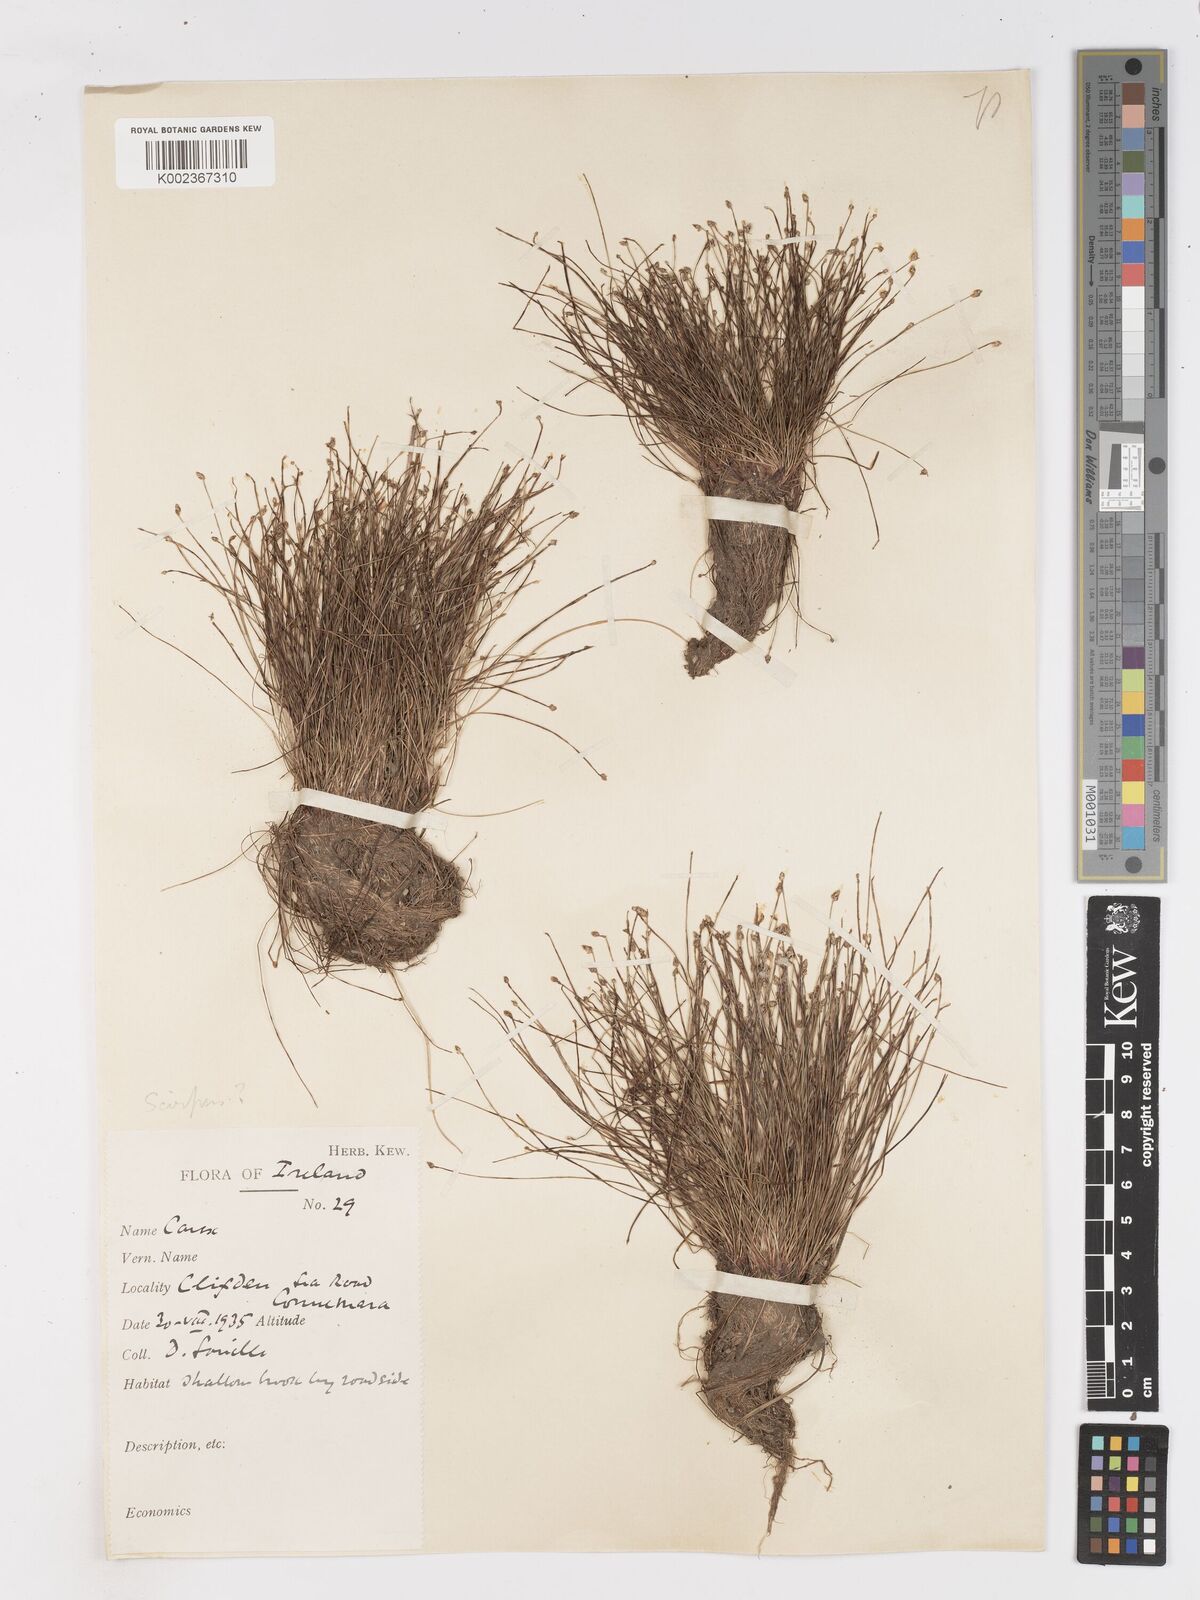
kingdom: Plantae
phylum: Tracheophyta
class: Liliopsida
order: Poales
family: Cyperaceae
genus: Isolepis
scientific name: Isolepis cernua
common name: Slender club-rush
